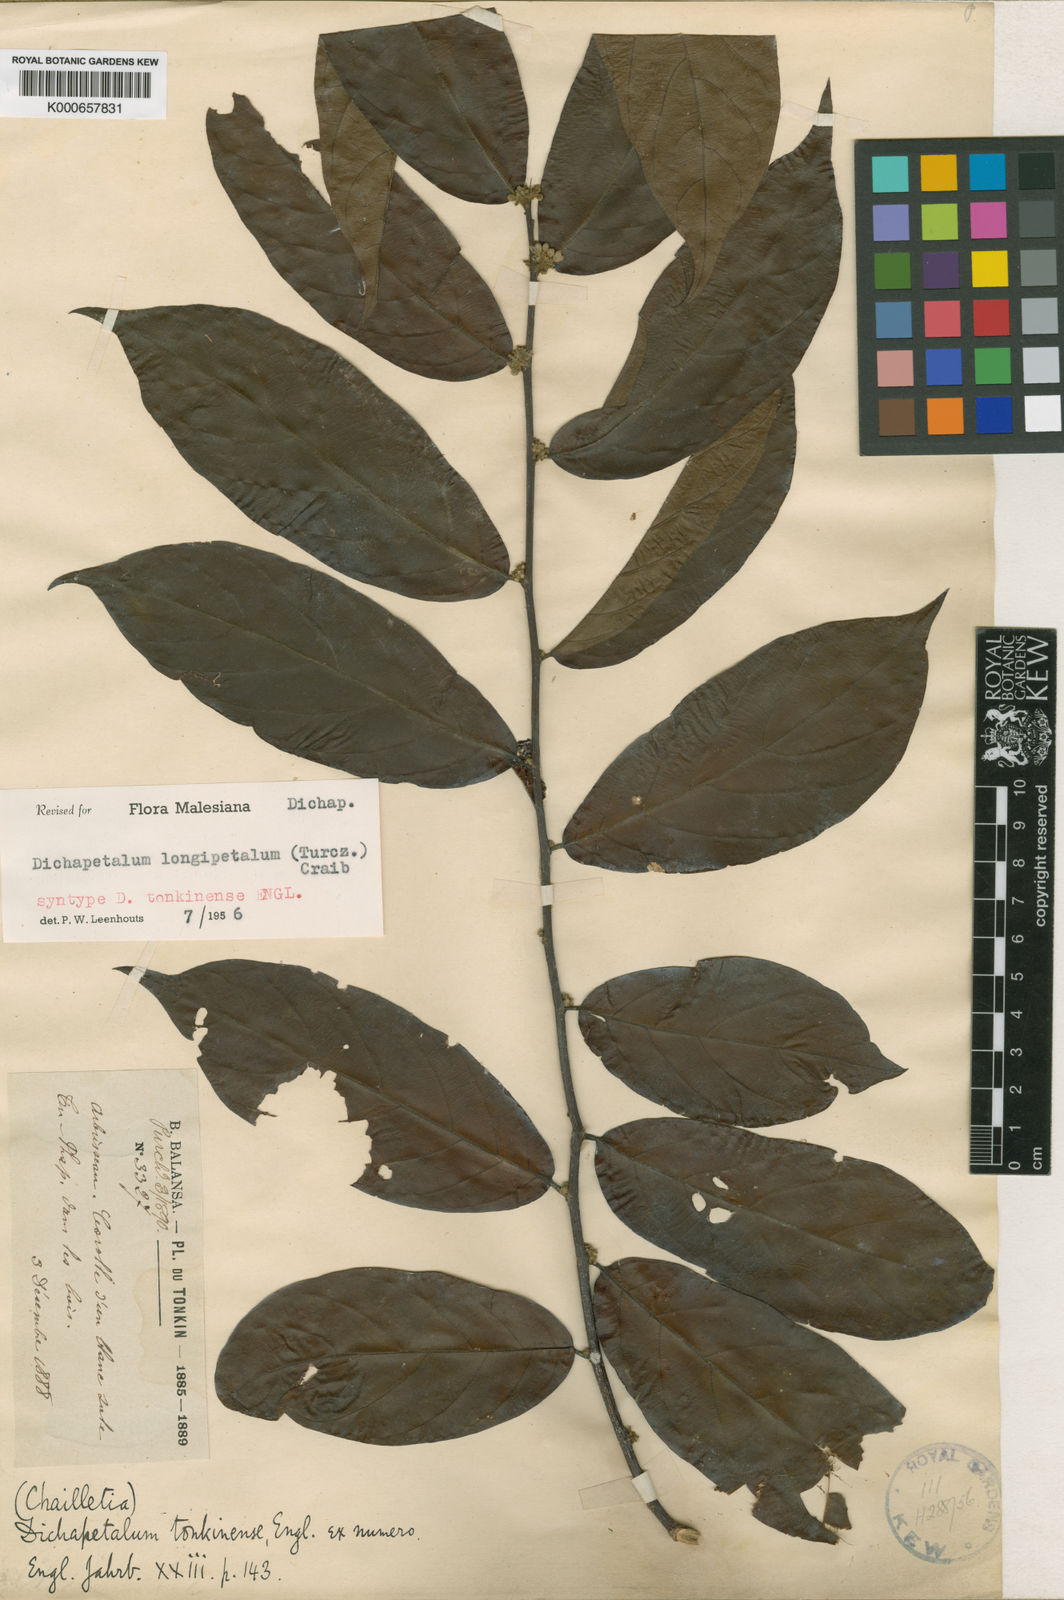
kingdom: Plantae
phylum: Tracheophyta
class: Magnoliopsida
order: Malpighiales
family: Dichapetalaceae
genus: Dichapetalum
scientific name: Dichapetalum
